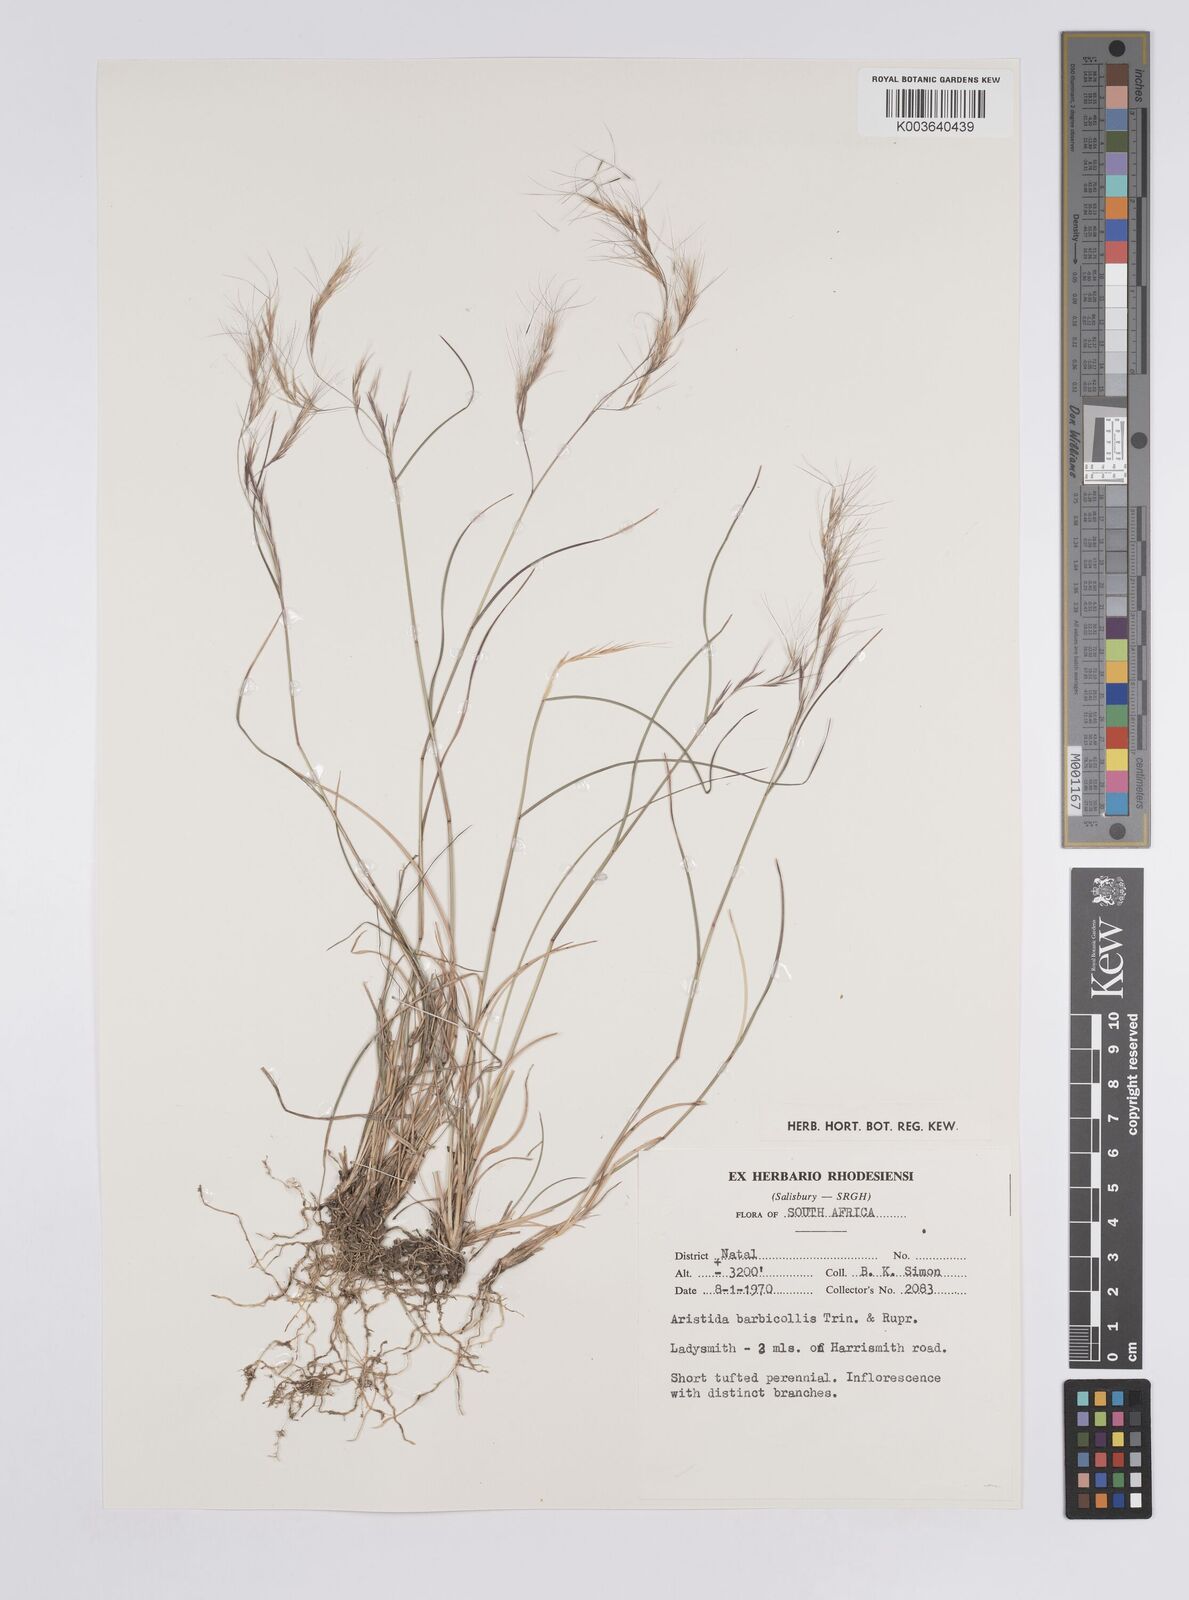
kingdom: Plantae
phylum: Tracheophyta
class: Liliopsida
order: Poales
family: Poaceae
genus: Aristida
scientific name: Aristida barbicollis
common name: Spreading prickle grass
